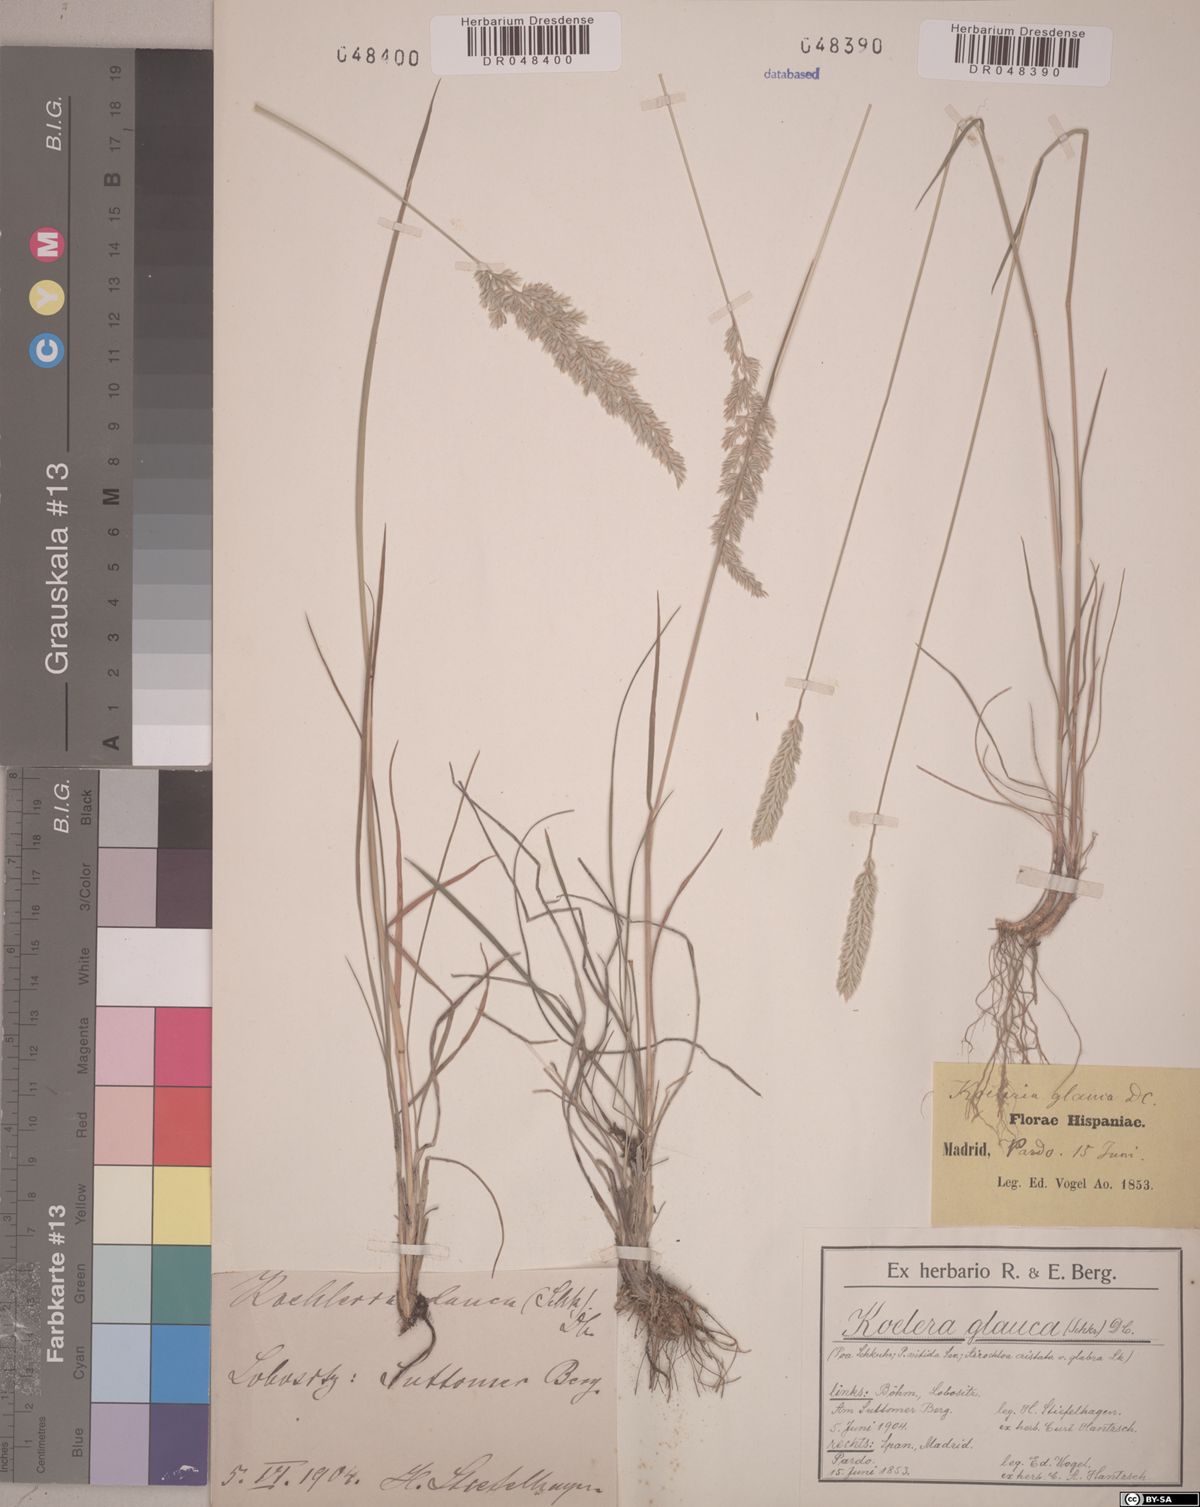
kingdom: Plantae
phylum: Tracheophyta
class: Liliopsida
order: Poales
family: Poaceae
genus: Koeleria
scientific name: Koeleria glauca
